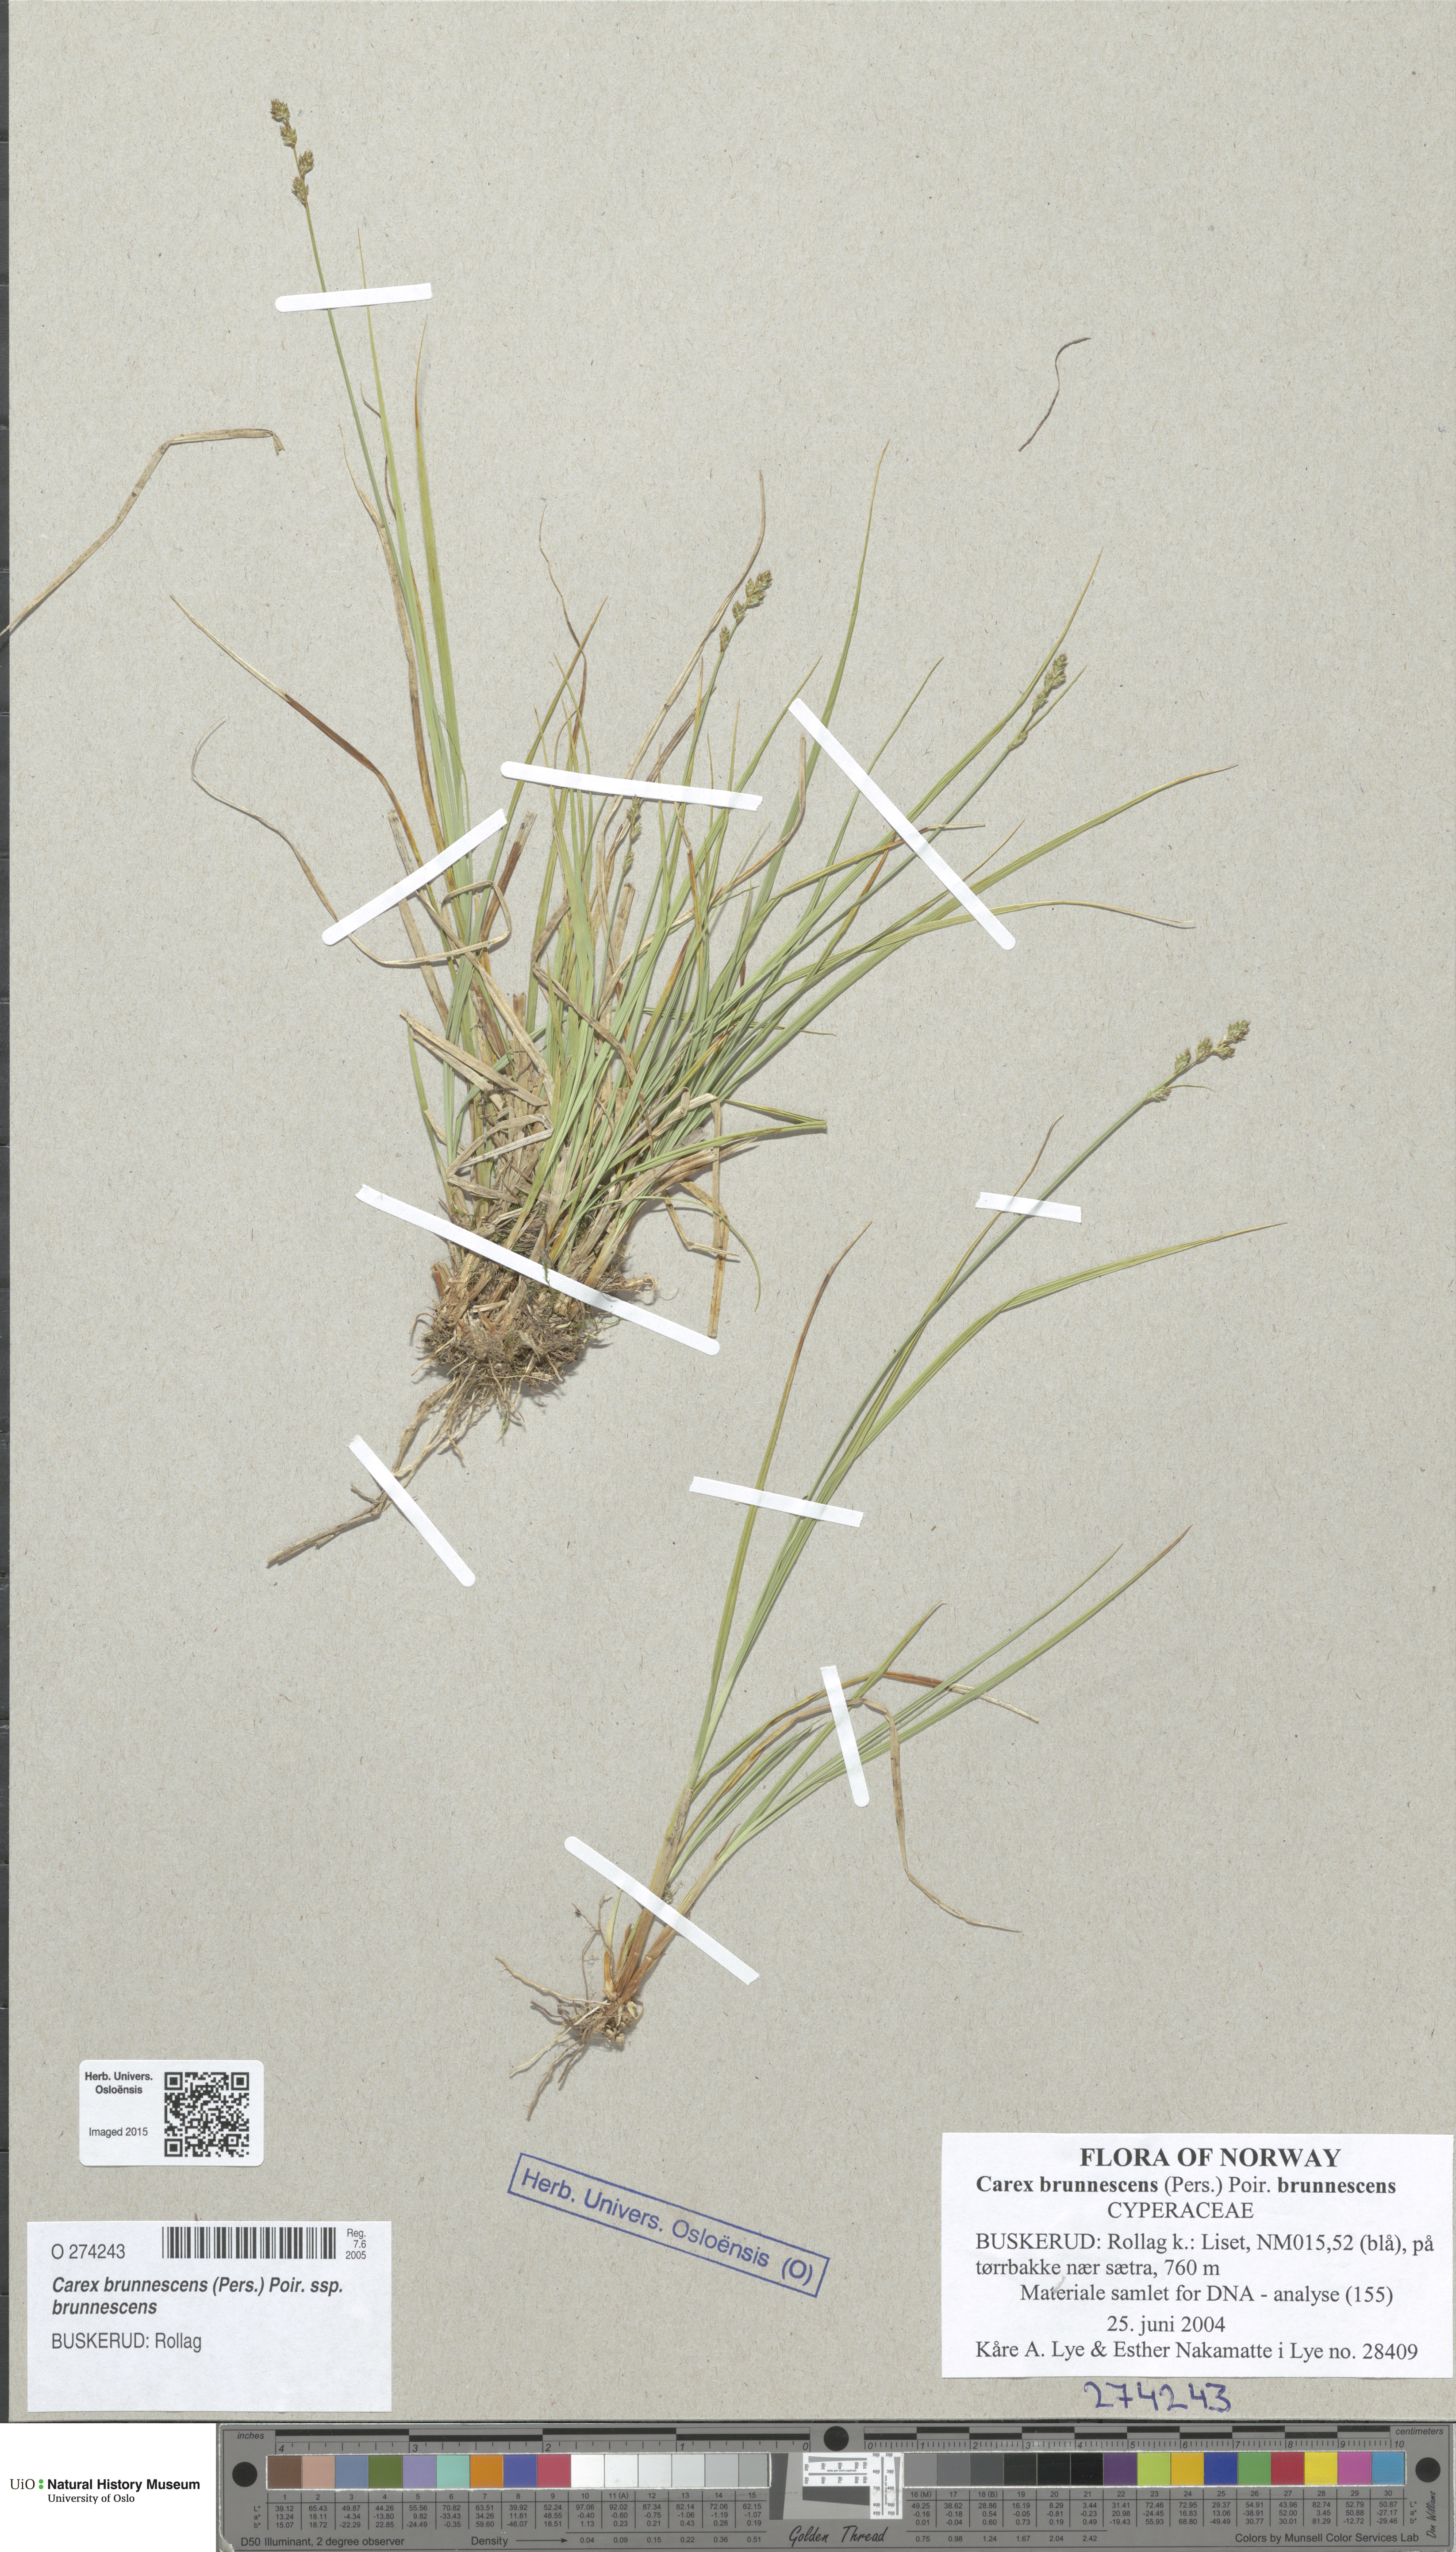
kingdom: Plantae
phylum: Tracheophyta
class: Liliopsida
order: Poales
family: Cyperaceae
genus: Carex
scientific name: Carex brunnescens
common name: Brown sedge
